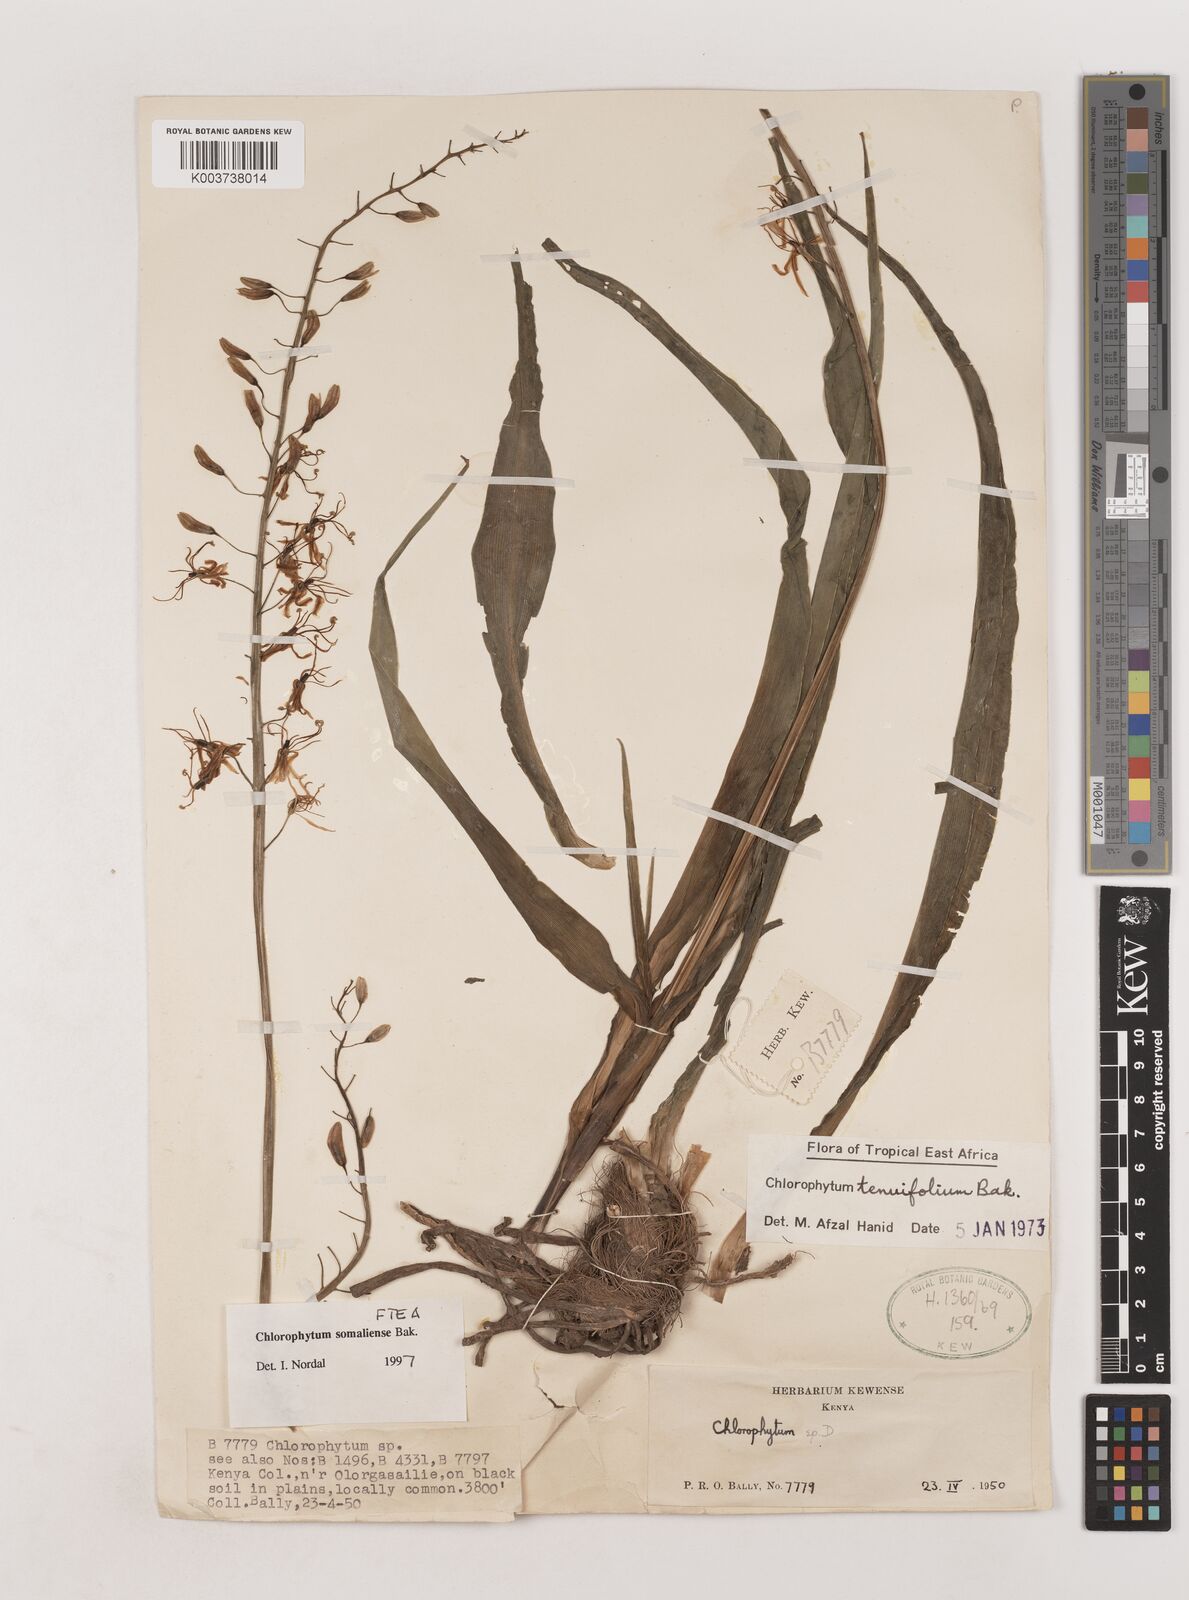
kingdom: Plantae
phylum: Tracheophyta
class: Liliopsida
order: Asparagales
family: Asparagaceae
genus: Chlorophytum
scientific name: Chlorophytum somaliense
